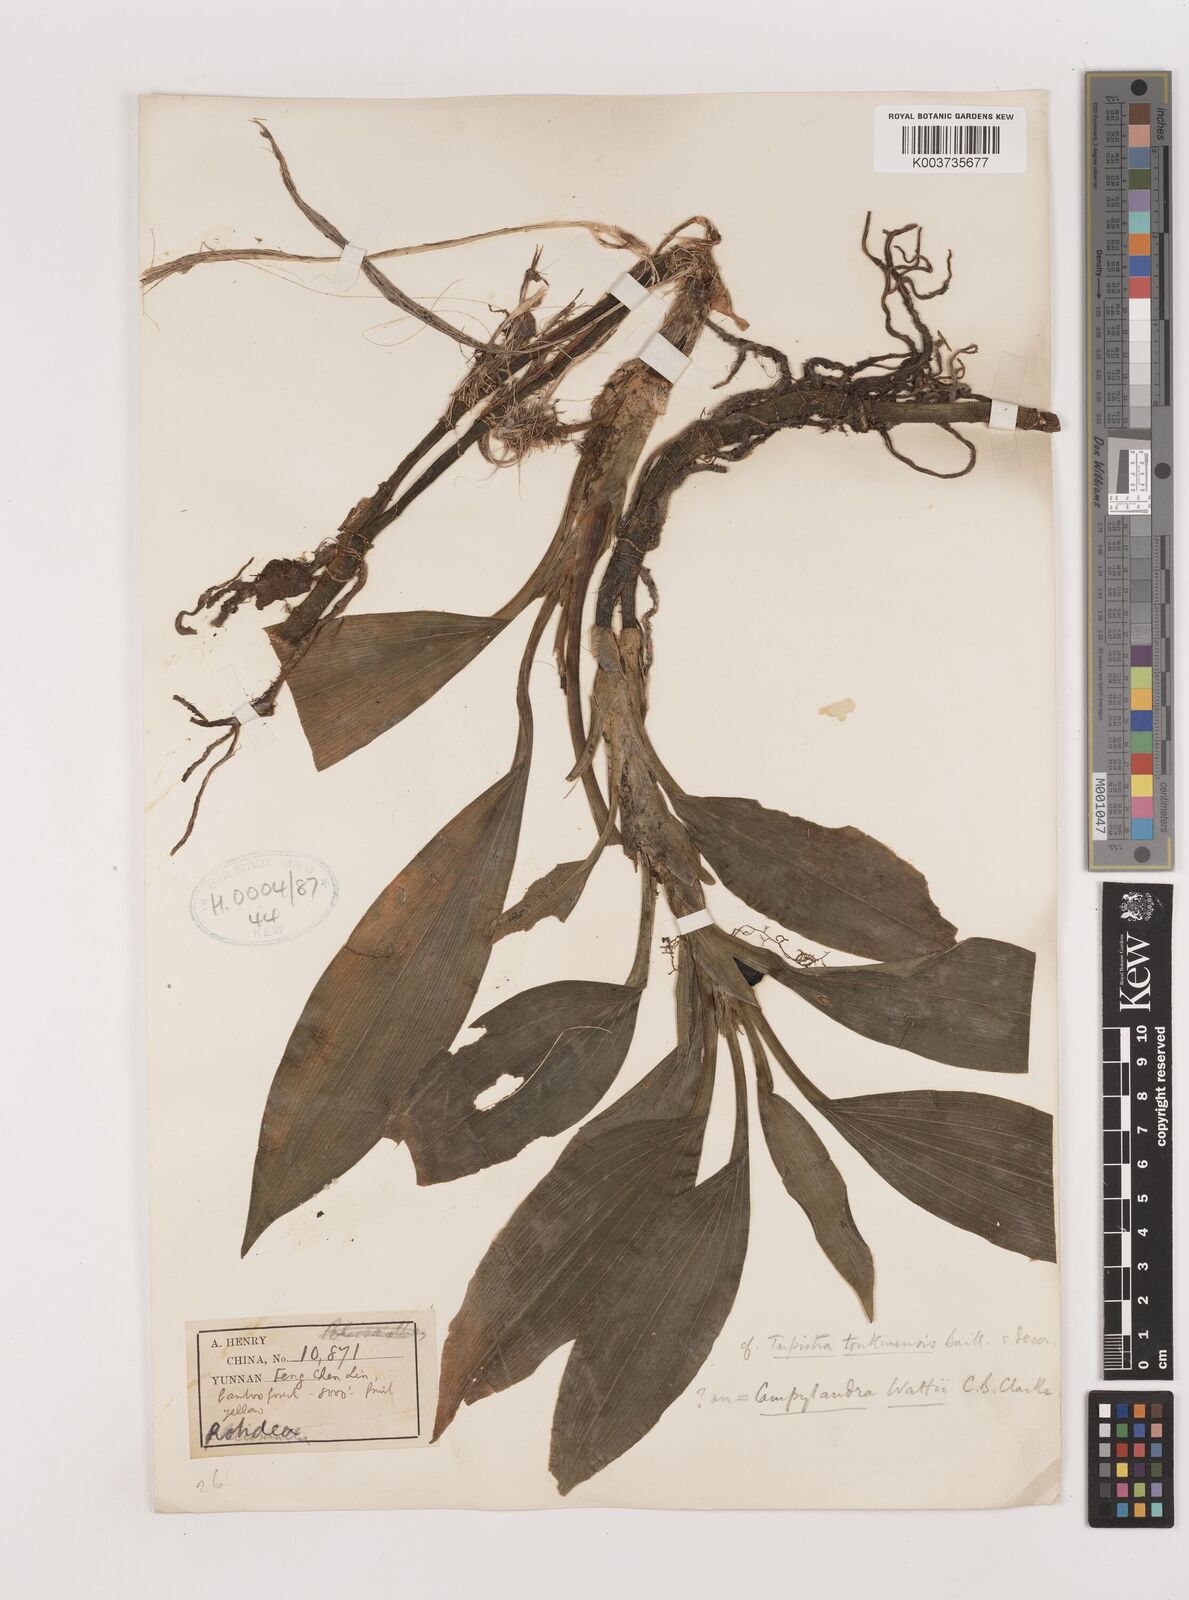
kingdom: Plantae
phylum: Tracheophyta
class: Liliopsida
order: Asparagales
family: Asparagaceae
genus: Rohdea
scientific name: Rohdea wattii
